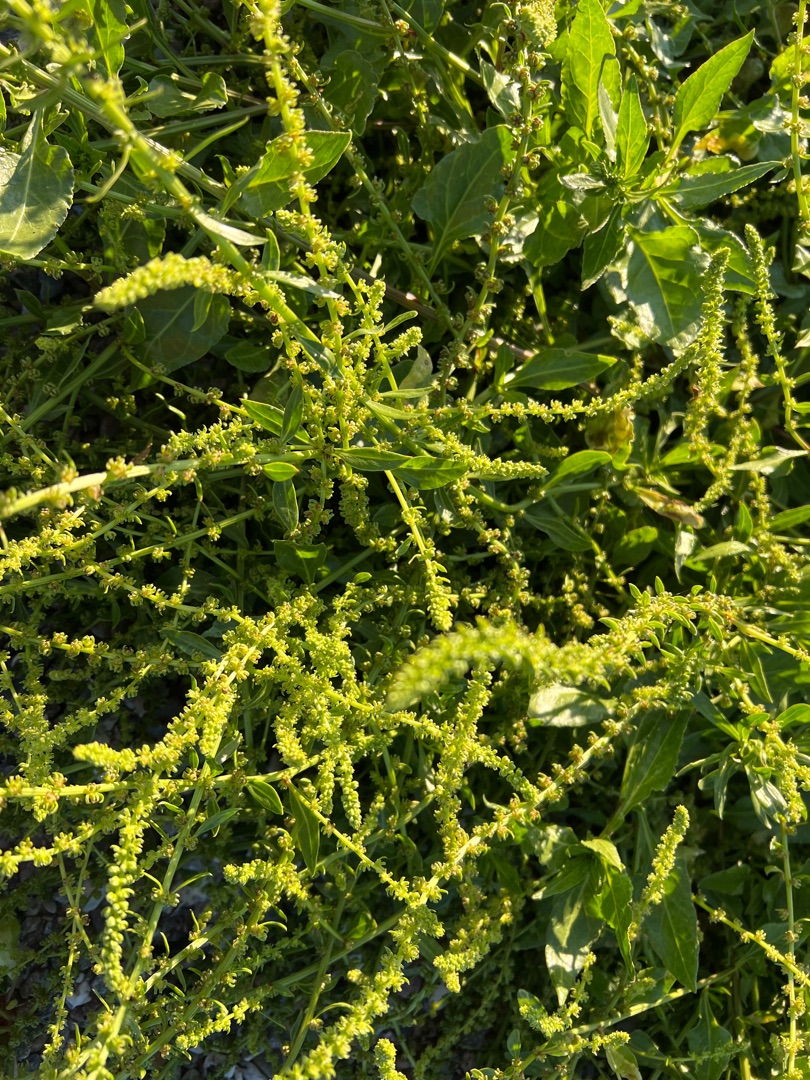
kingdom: Plantae
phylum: Tracheophyta
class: Magnoliopsida
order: Caryophyllales
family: Amaranthaceae
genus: Beta
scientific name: Beta maritima
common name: Strand-bede
